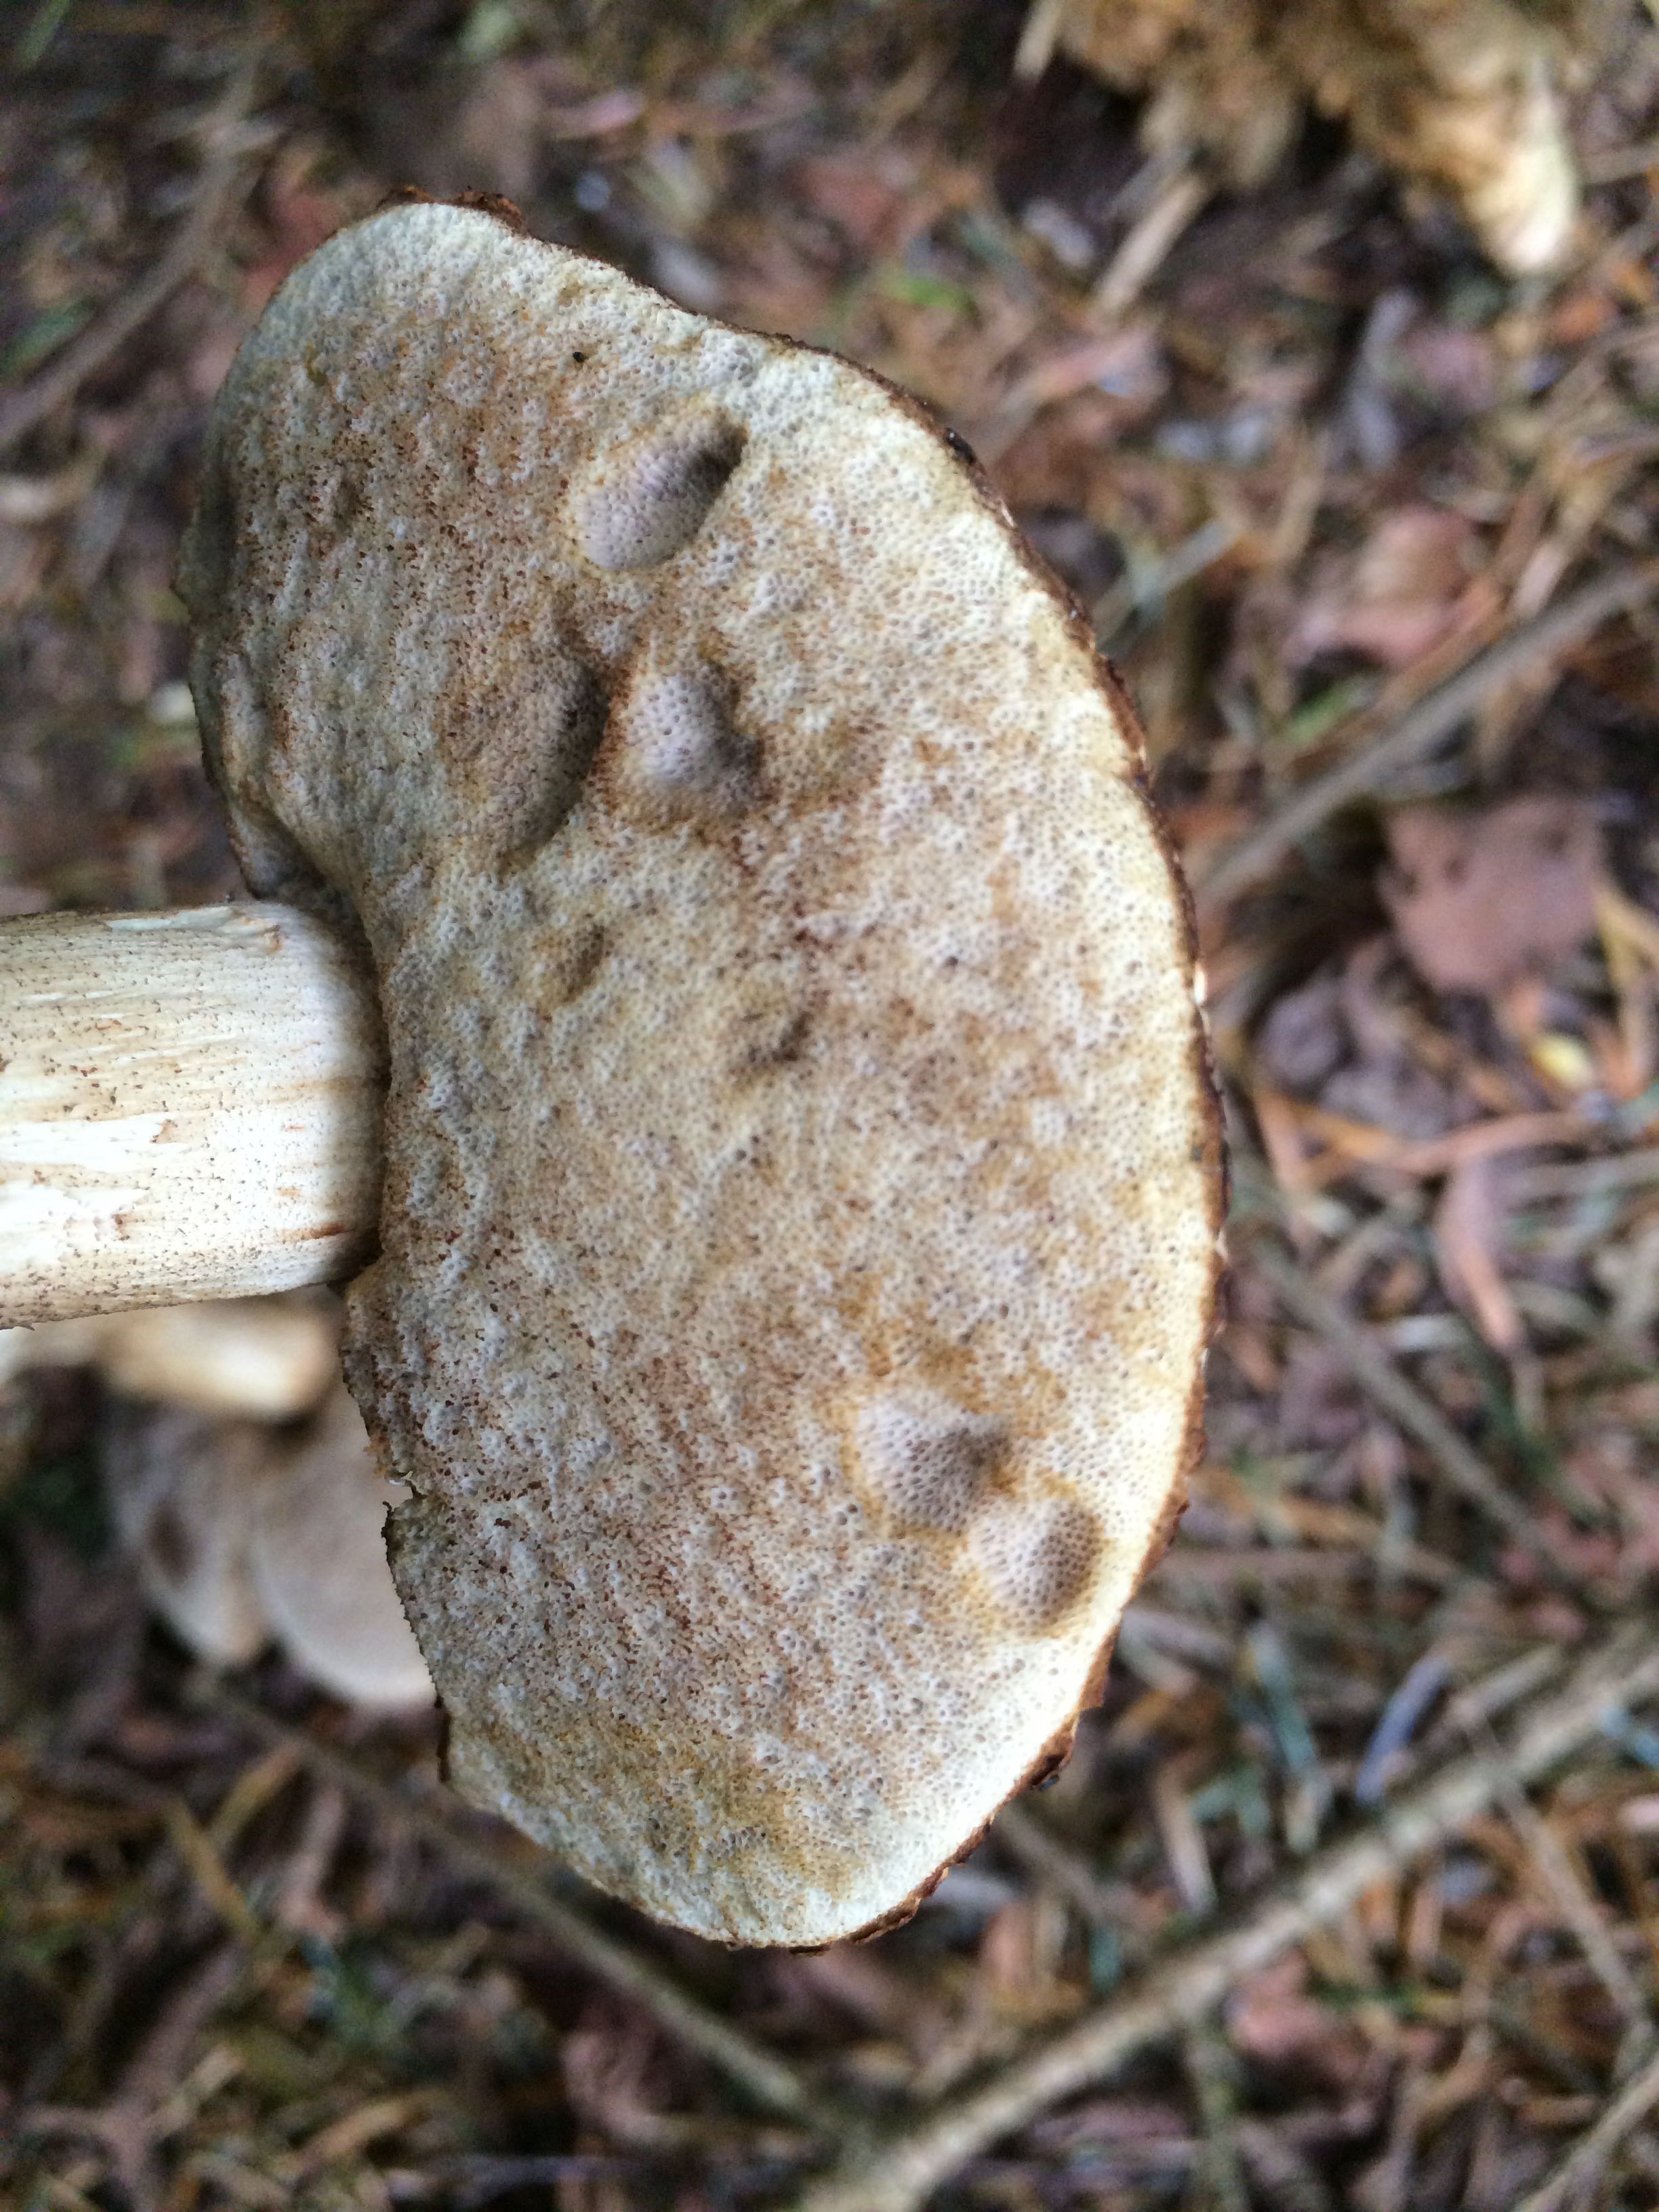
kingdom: Fungi
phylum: Basidiomycota
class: Agaricomycetes
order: Boletales
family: Boletaceae
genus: Leccinum
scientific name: Leccinum
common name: skælrørhat
